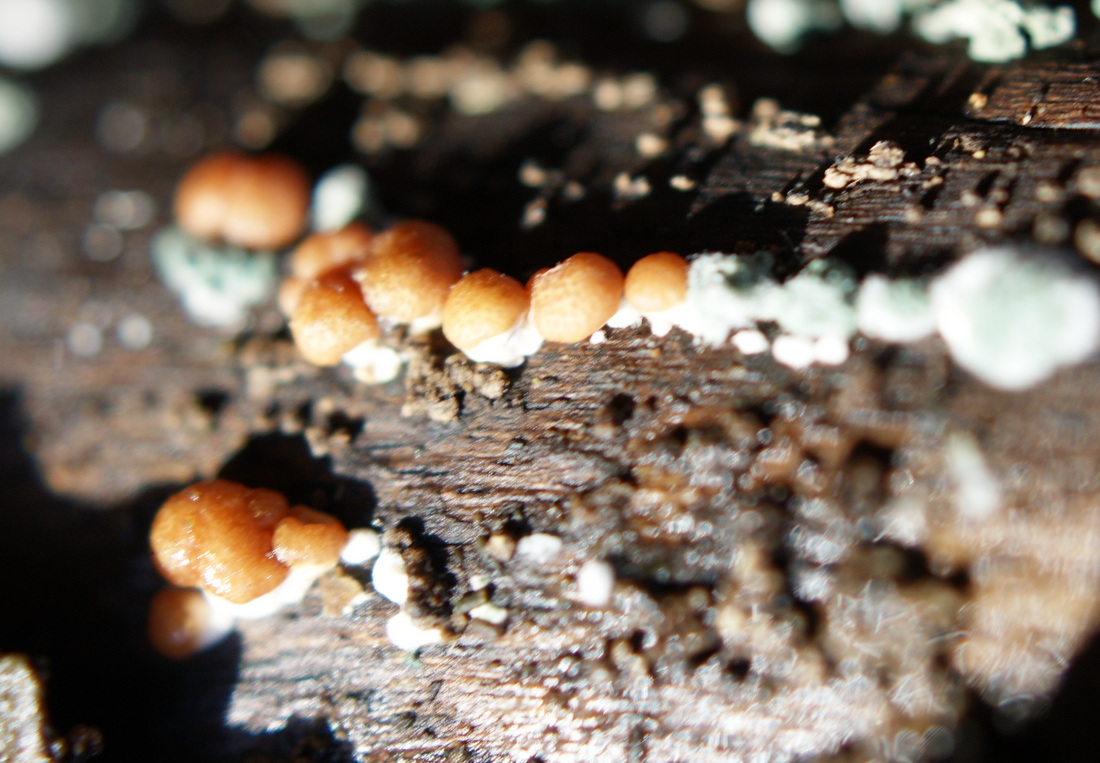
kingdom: Fungi
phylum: Ascomycota
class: Sordariomycetes
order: Hypocreales
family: Hypocreaceae
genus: Trichoderma
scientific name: Trichoderma europaeum
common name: rosabrun kødkerne
